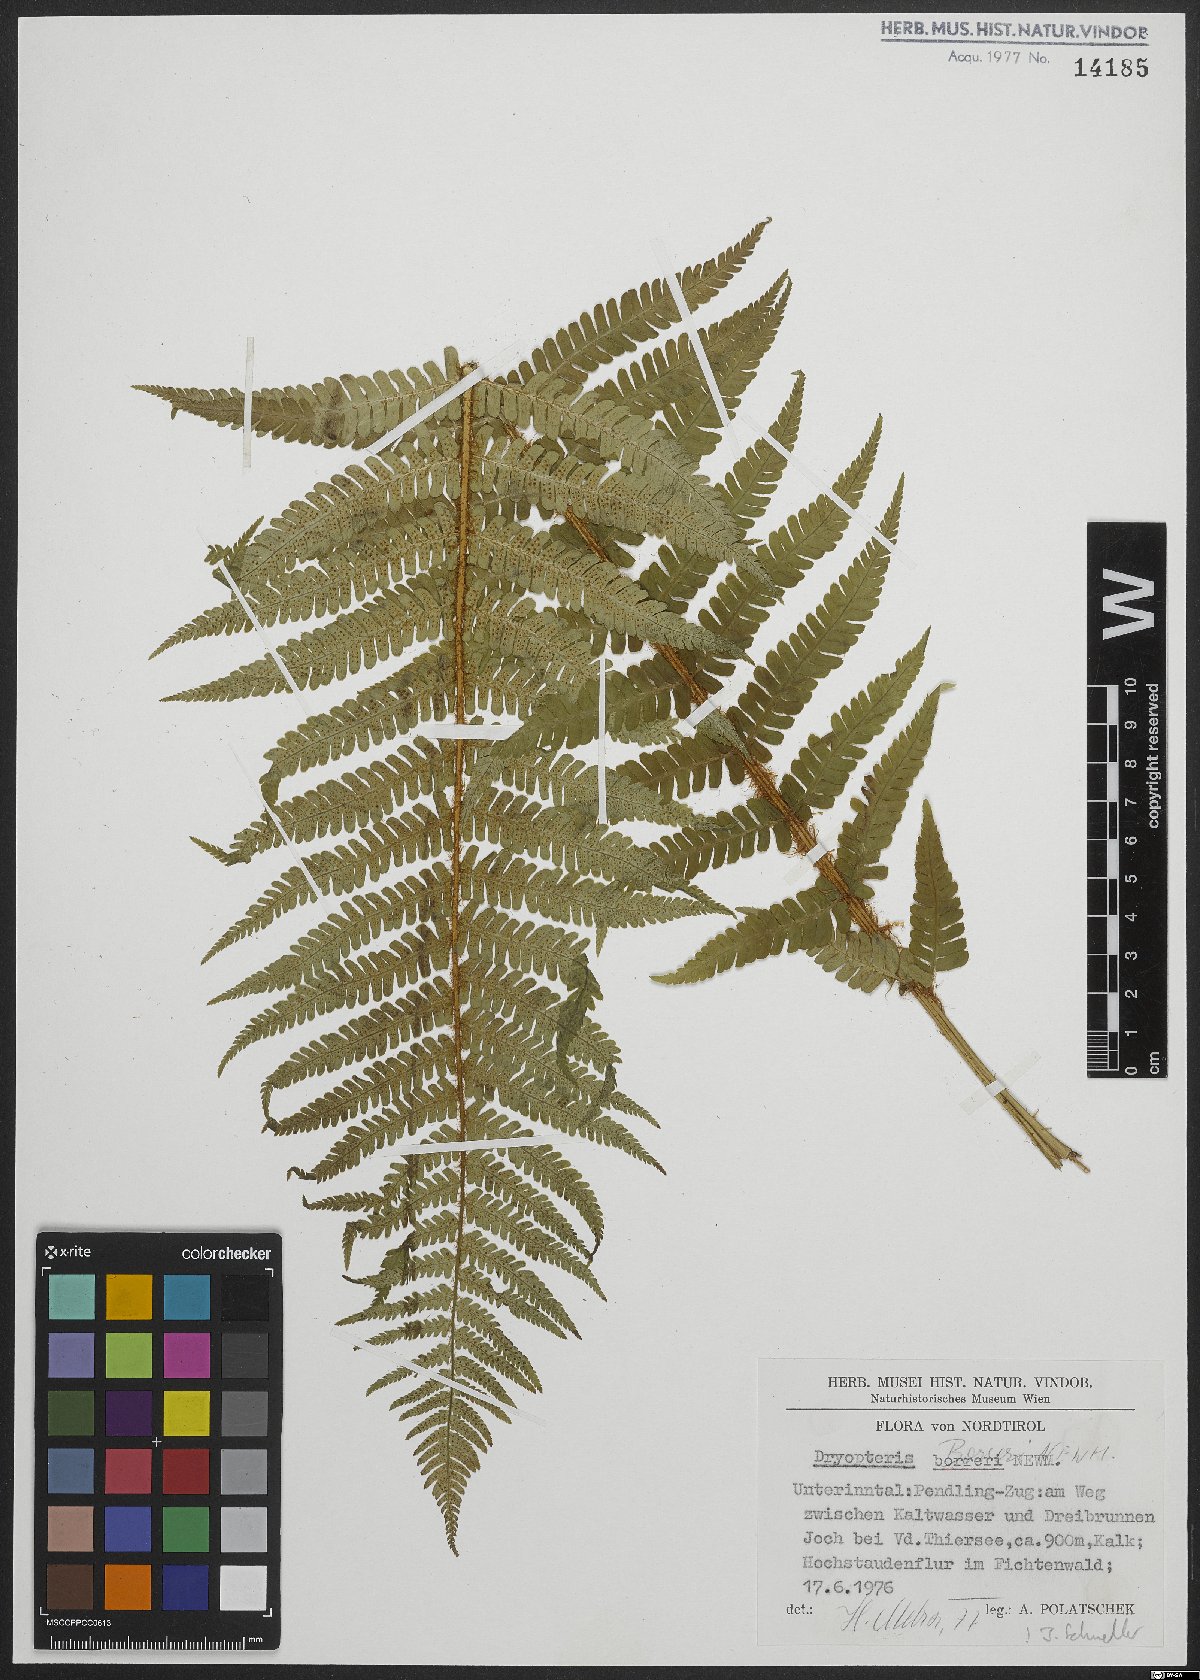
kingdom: Plantae
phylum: Tracheophyta
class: Polypodiopsida
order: Polypodiales
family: Dryopteridaceae
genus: Dryopteris
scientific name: Dryopteris borreri
